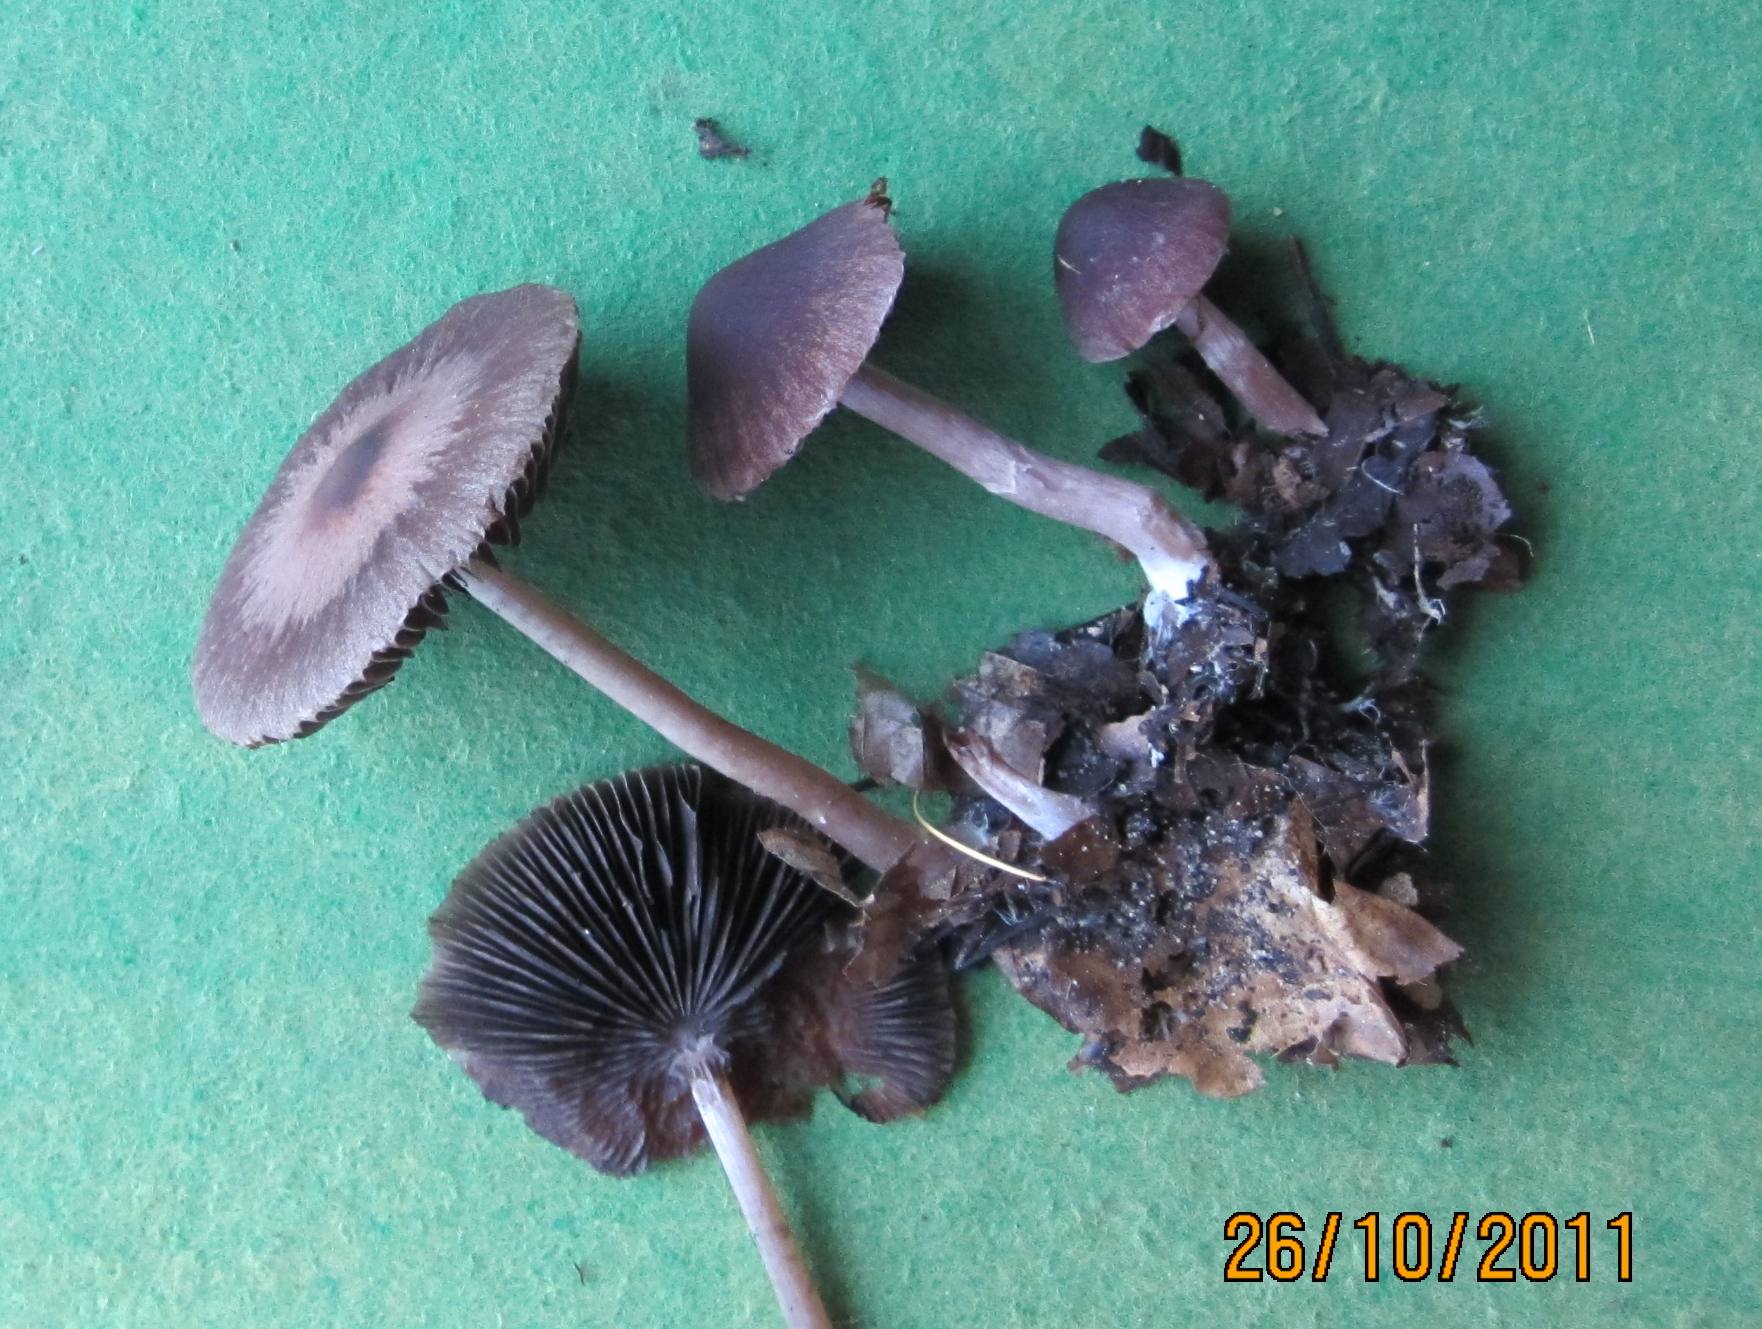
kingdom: Fungi
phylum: Basidiomycota
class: Agaricomycetes
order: Agaricales
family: Psathyrellaceae
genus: Psathyrella
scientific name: Psathyrella bipellis
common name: vinrød mørkhat
